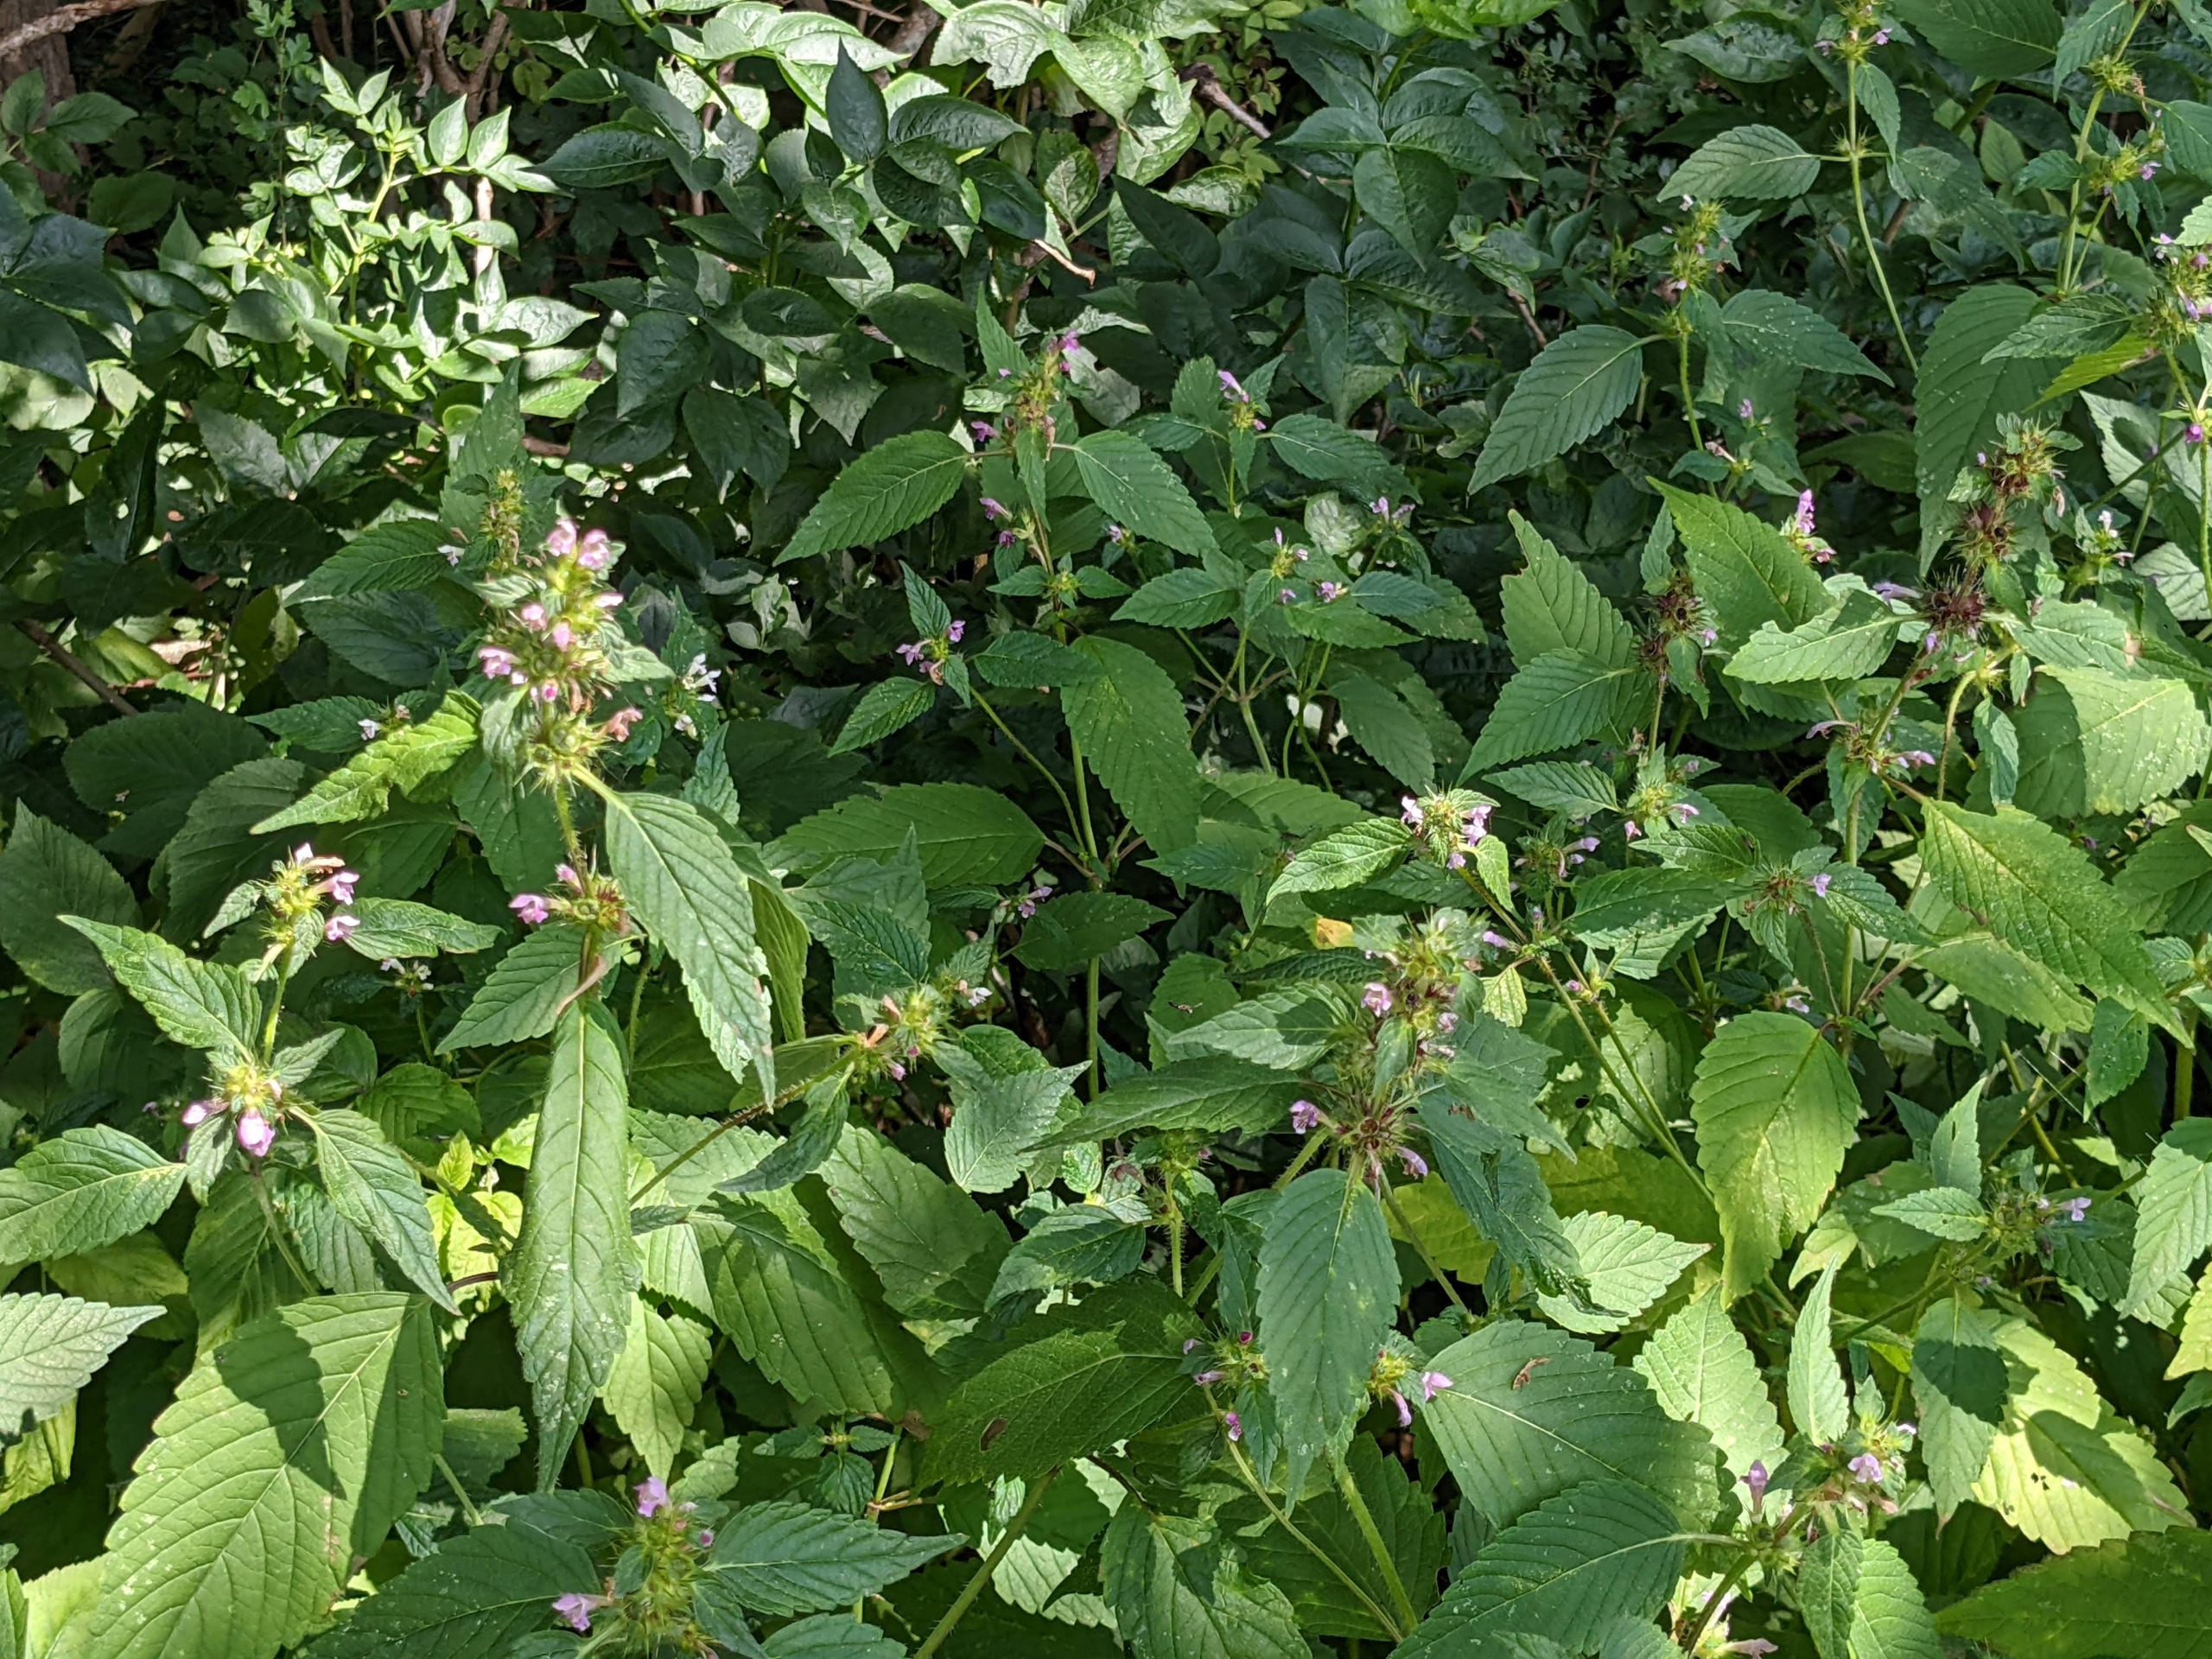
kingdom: Plantae
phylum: Tracheophyta
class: Magnoliopsida
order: Lamiales
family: Lamiaceae
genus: Galeopsis
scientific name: Galeopsis tetrahit
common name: Almindelig hanekro
